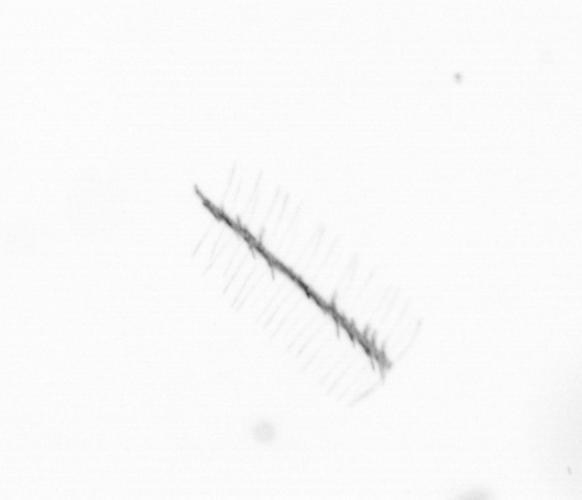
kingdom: Chromista
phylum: Ochrophyta
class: Bacillariophyceae
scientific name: Bacillariophyceae
